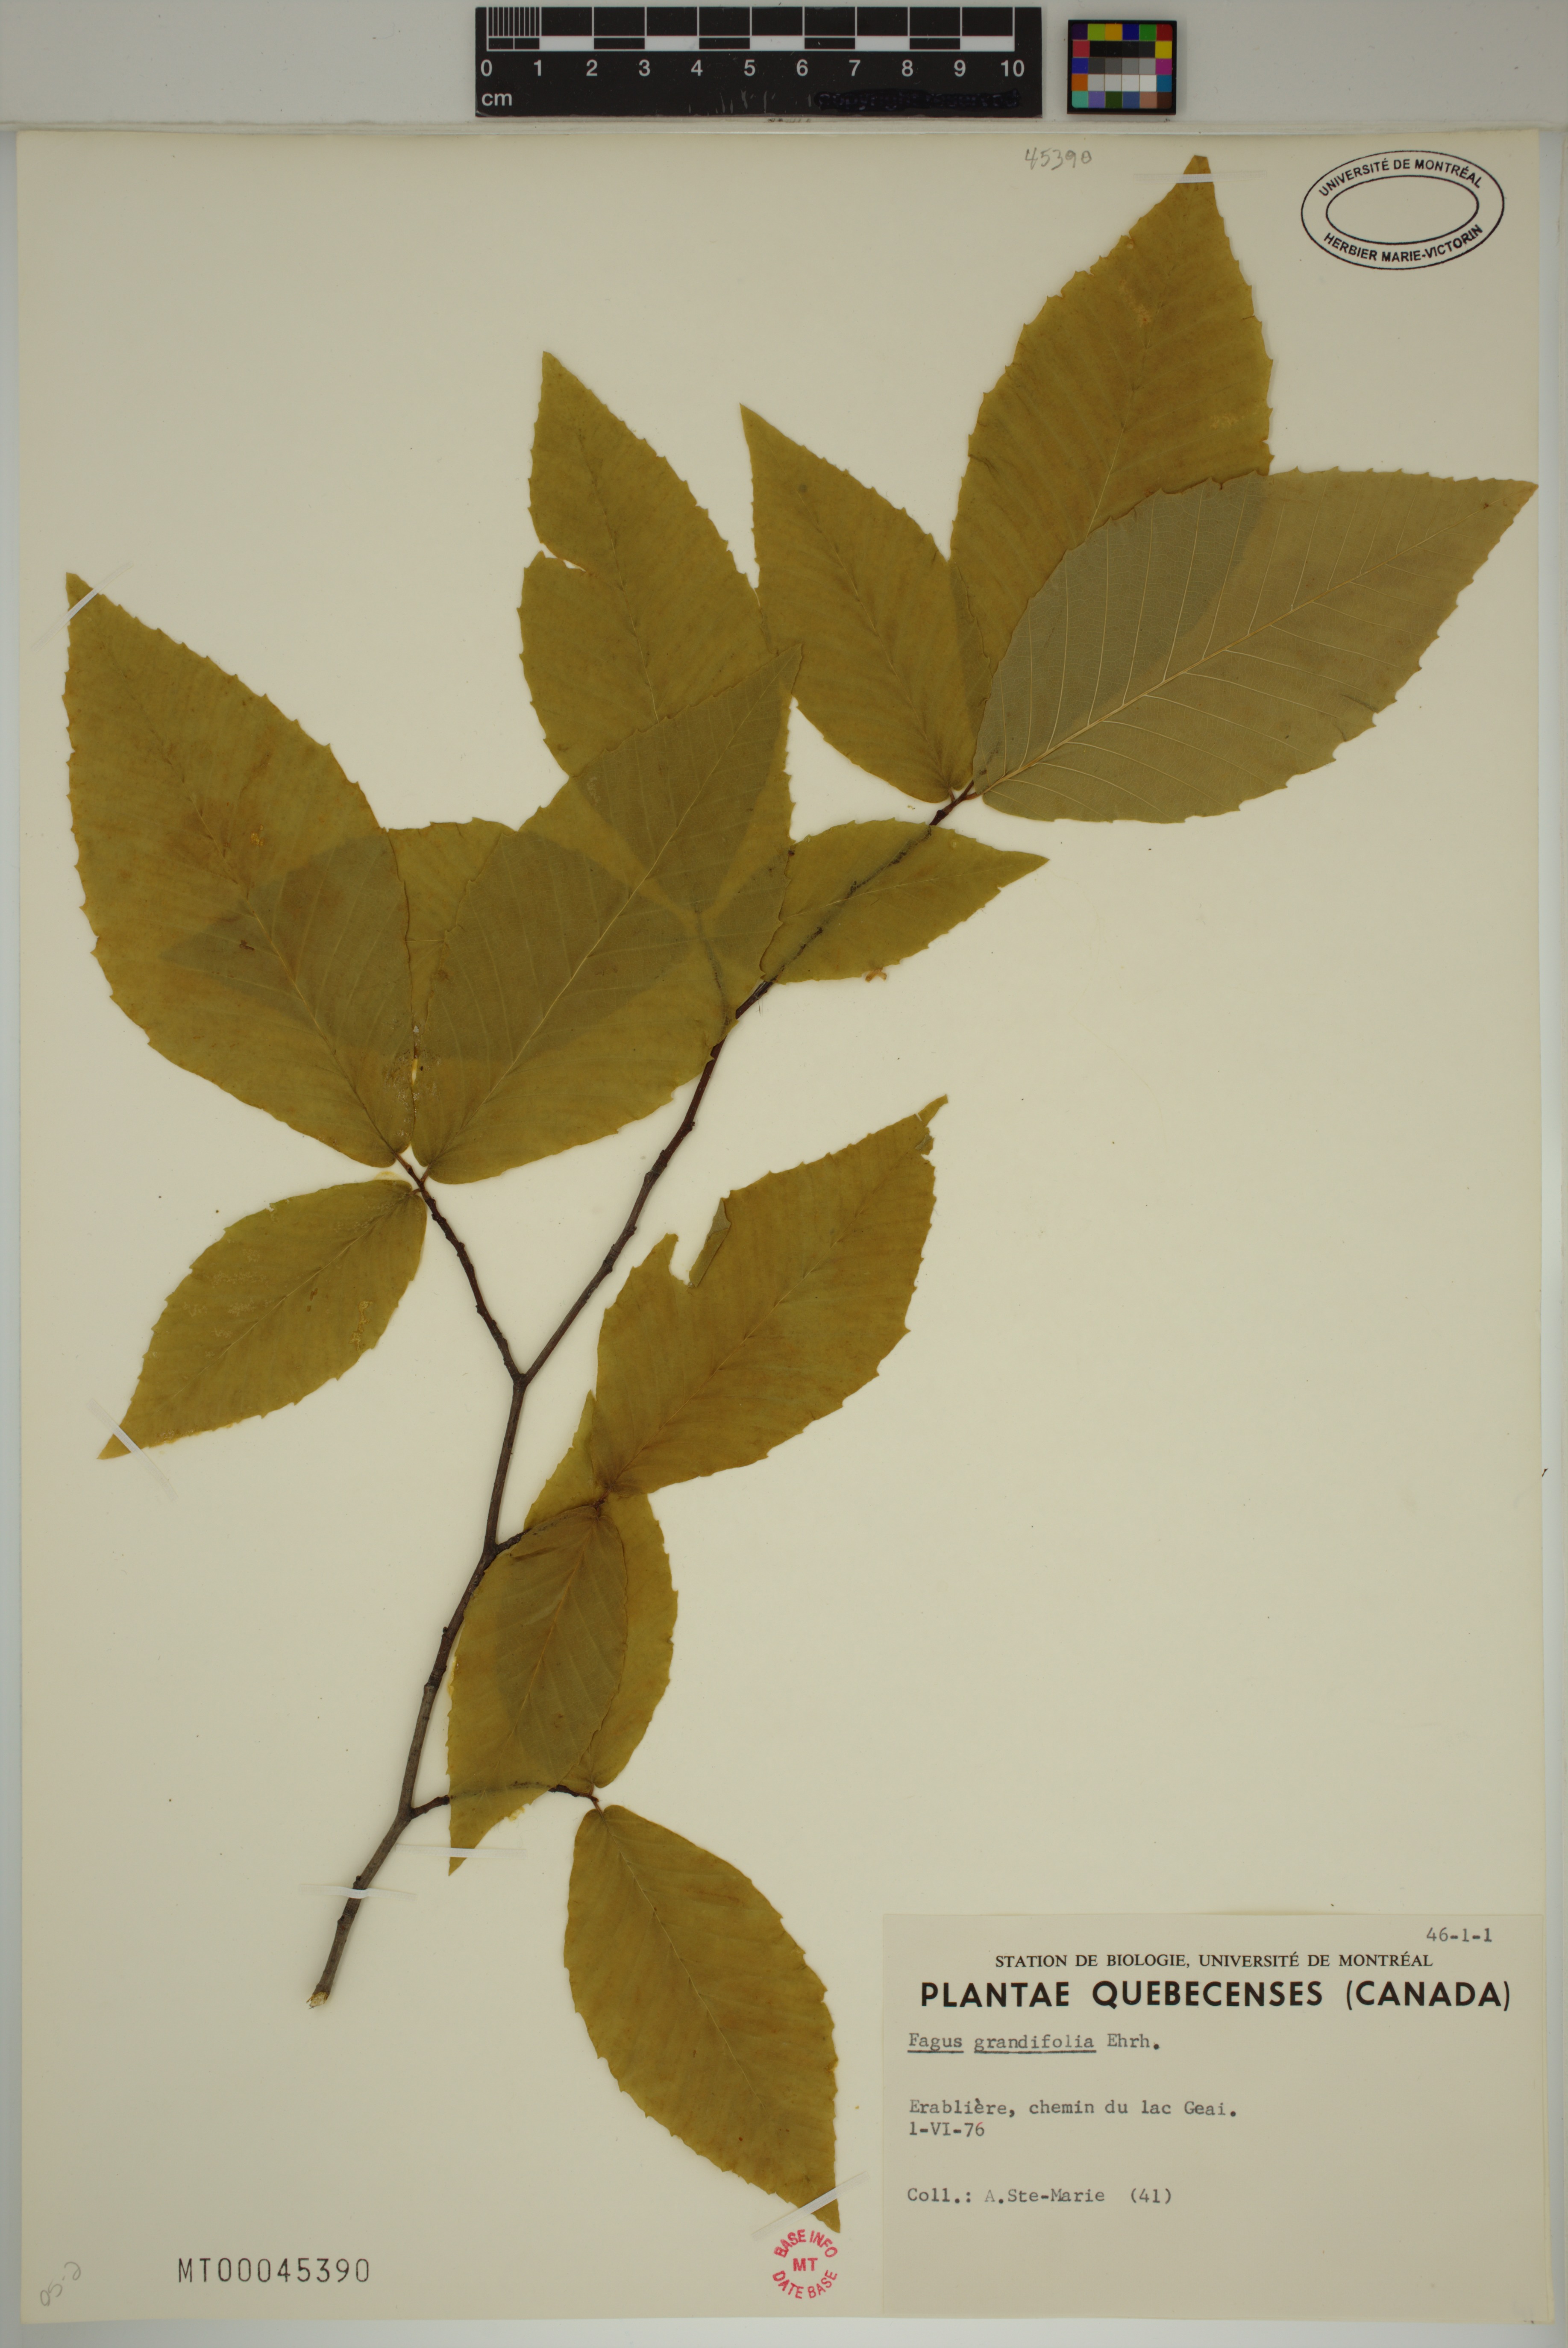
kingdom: Plantae
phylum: Tracheophyta
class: Magnoliopsida
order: Fagales
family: Fagaceae
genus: Fagus
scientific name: Fagus grandifolia
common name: American beech
